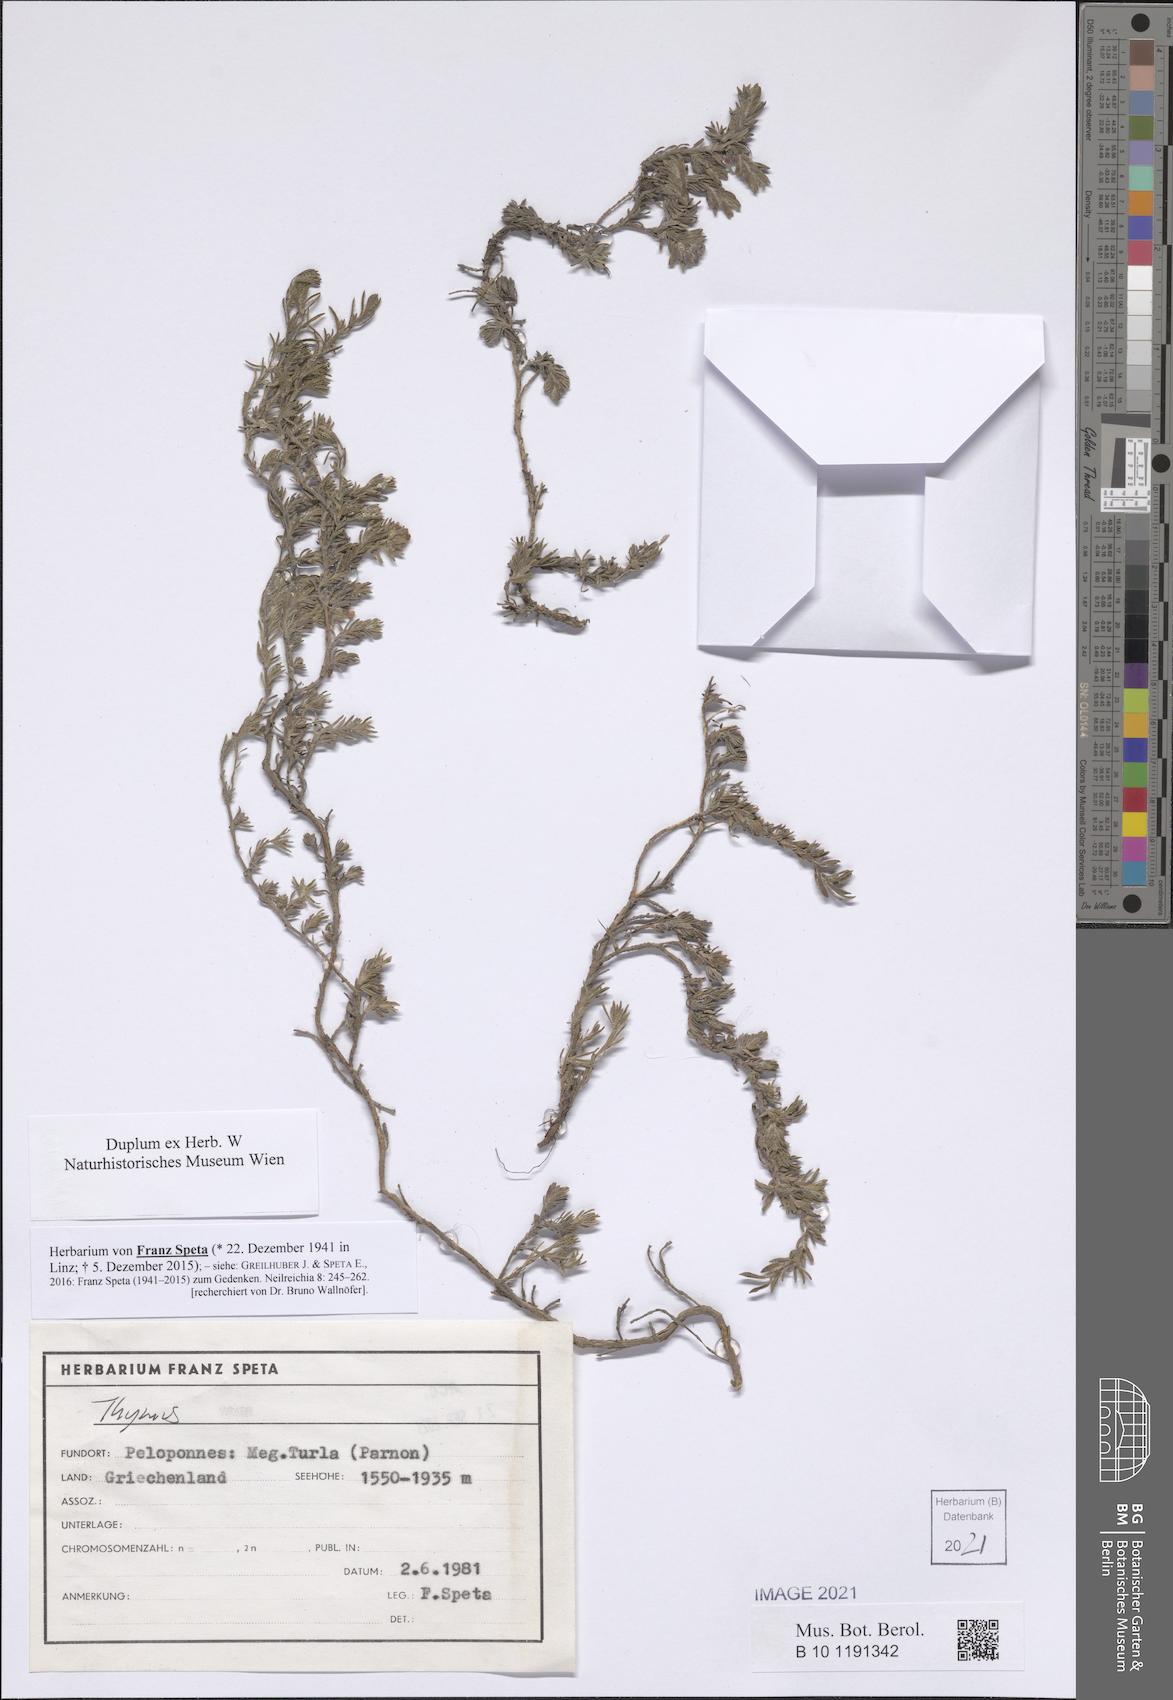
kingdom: Plantae
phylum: Tracheophyta
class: Magnoliopsida
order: Lamiales
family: Lamiaceae
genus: Thymus
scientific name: Thymus
